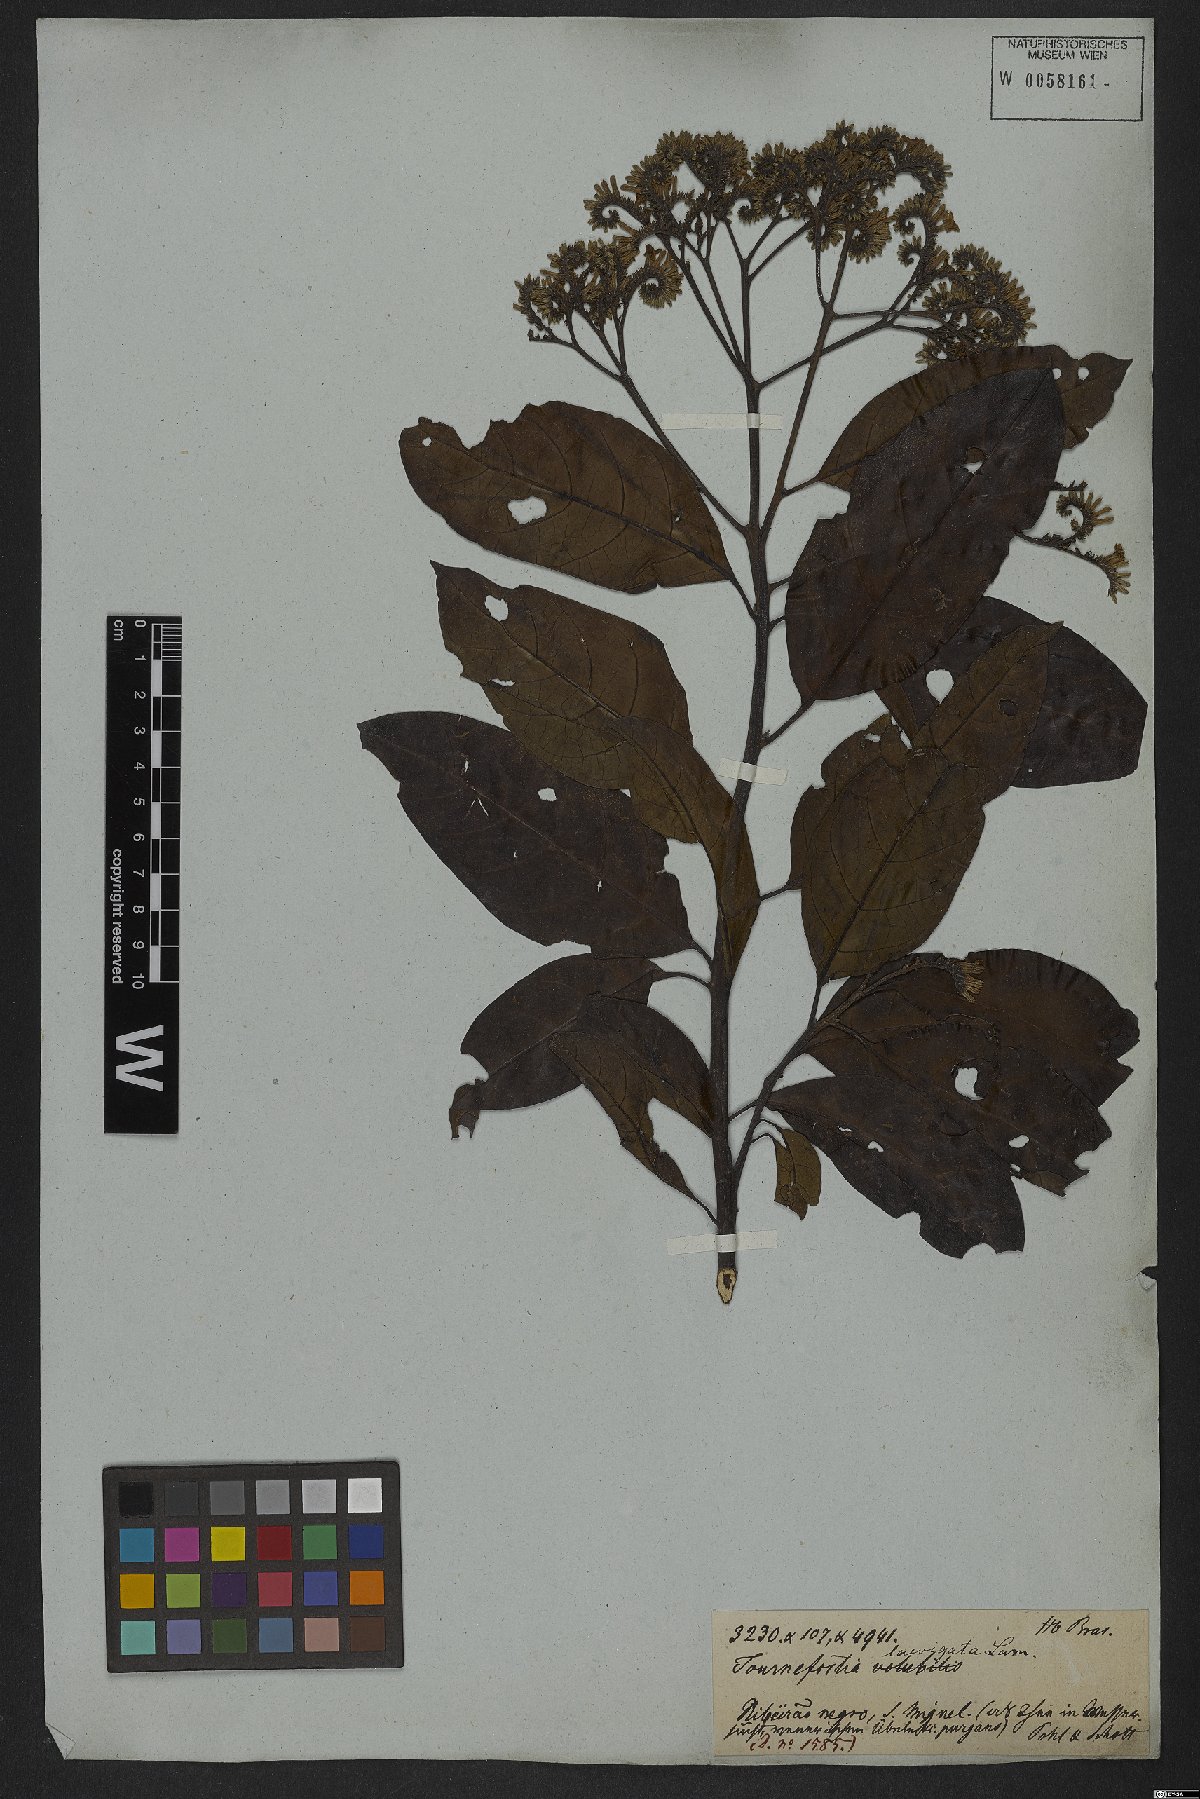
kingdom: Plantae
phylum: Tracheophyta
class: Magnoliopsida
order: Boraginales
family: Heliotropiaceae
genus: Heliotropium
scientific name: Heliotropium verdcourtii
